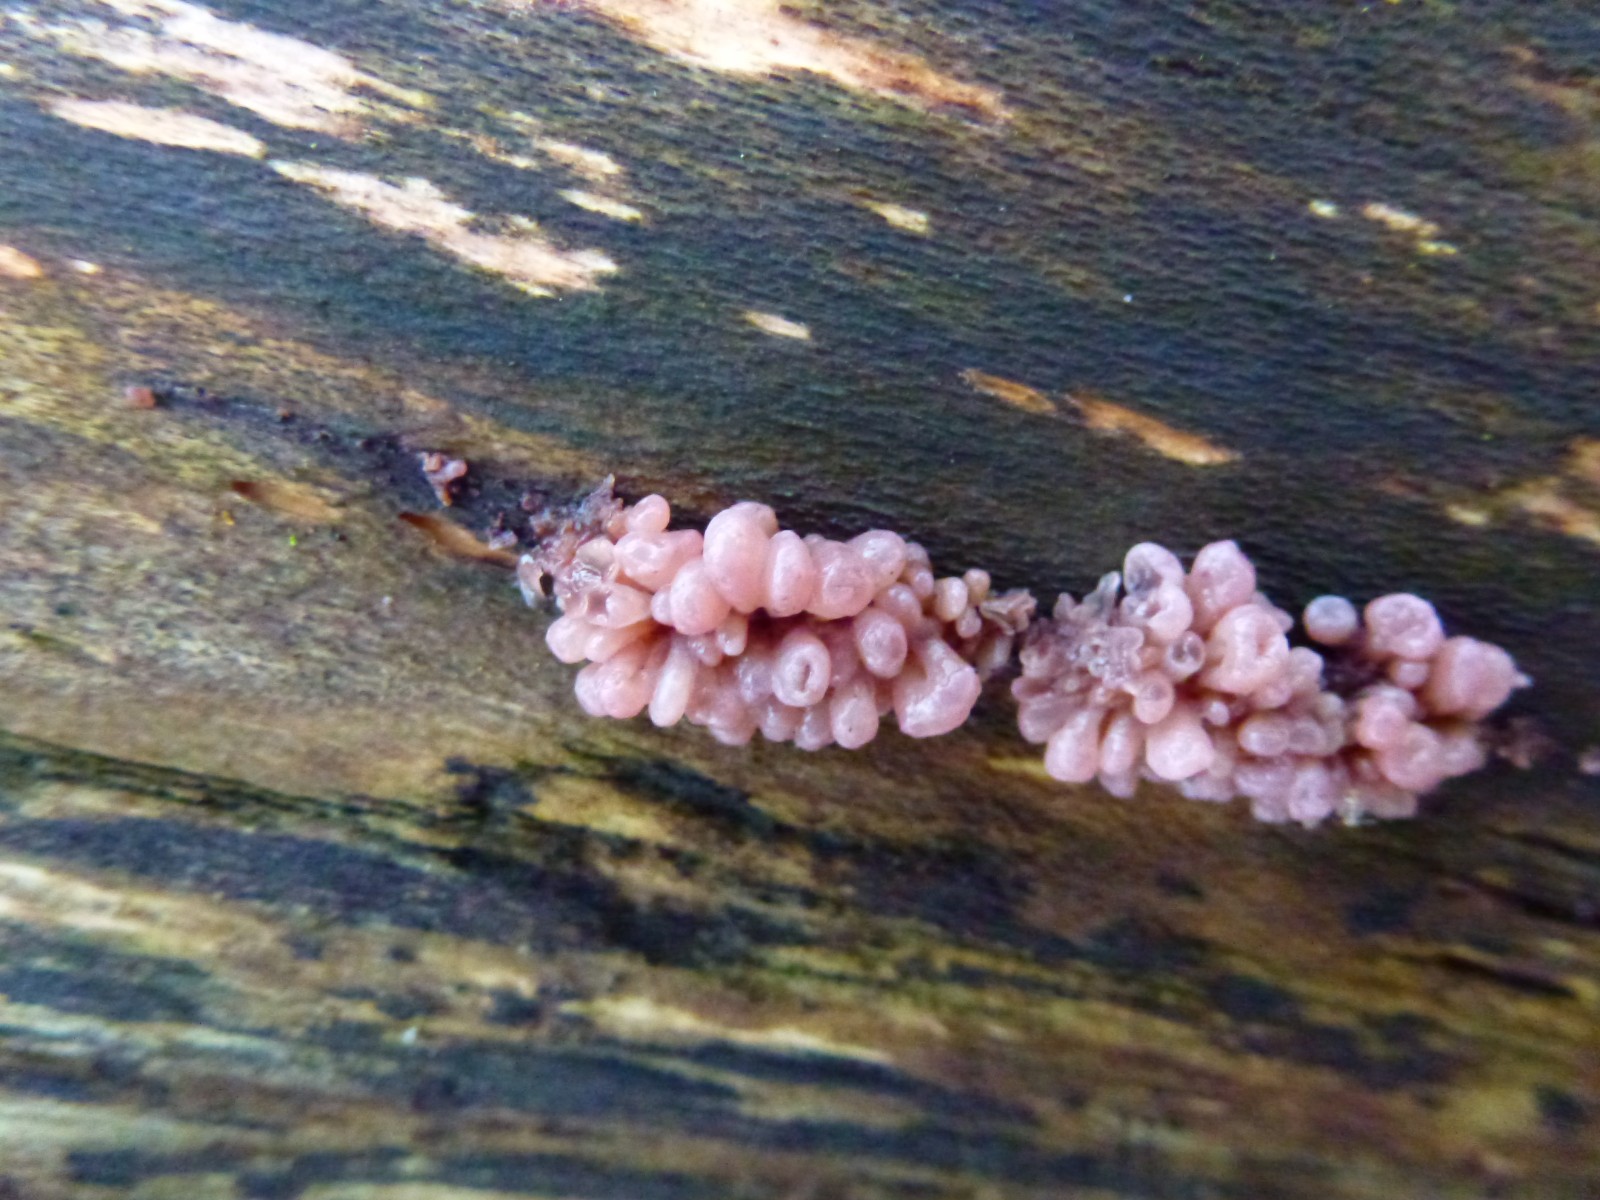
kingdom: Fungi
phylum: Ascomycota
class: Leotiomycetes
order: Helotiales
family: Gelatinodiscaceae
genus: Ascocoryne
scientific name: Ascocoryne sarcoides
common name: rødlilla sejskive
